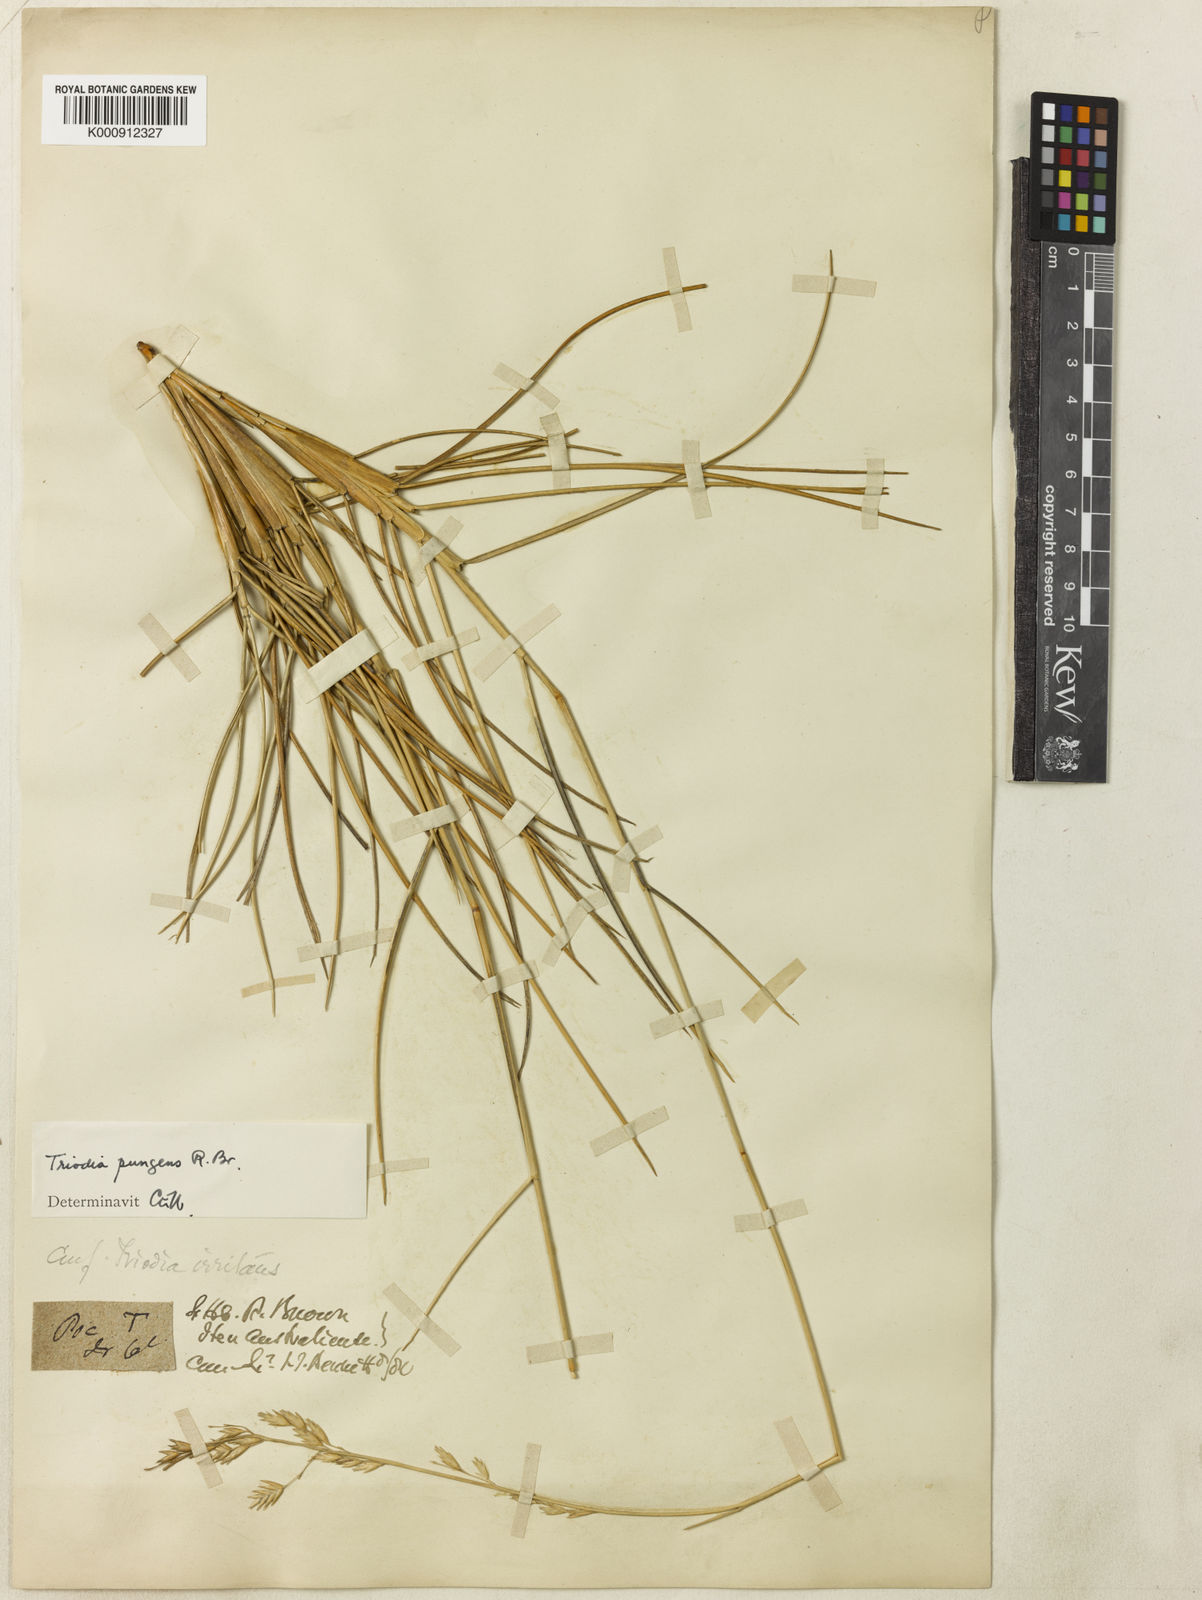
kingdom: Plantae
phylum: Tracheophyta
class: Liliopsida
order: Poales
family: Poaceae
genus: Triodia
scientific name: Triodia pungens
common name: Soft spinifex
